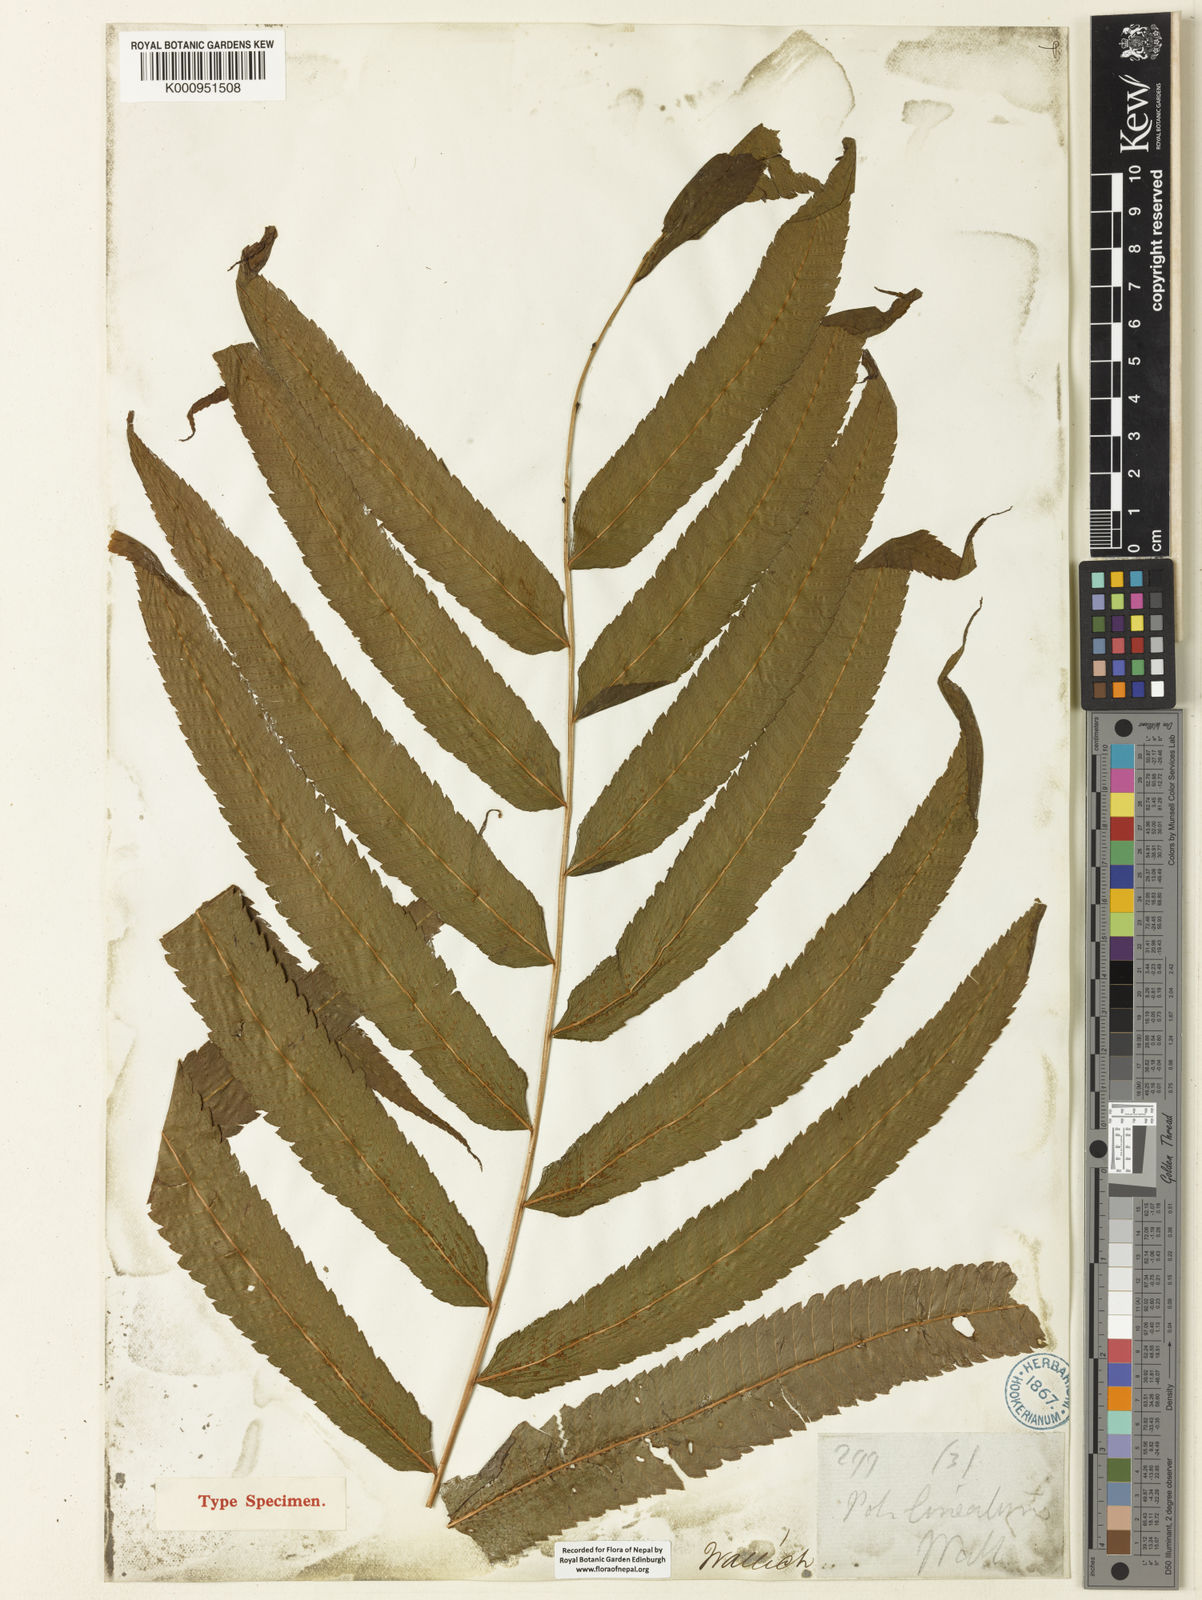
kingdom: Plantae
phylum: Tracheophyta
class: Polypodiopsida
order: Polypodiales
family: Thelypteridaceae
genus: Menisciopsis
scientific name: Menisciopsis penangiana
